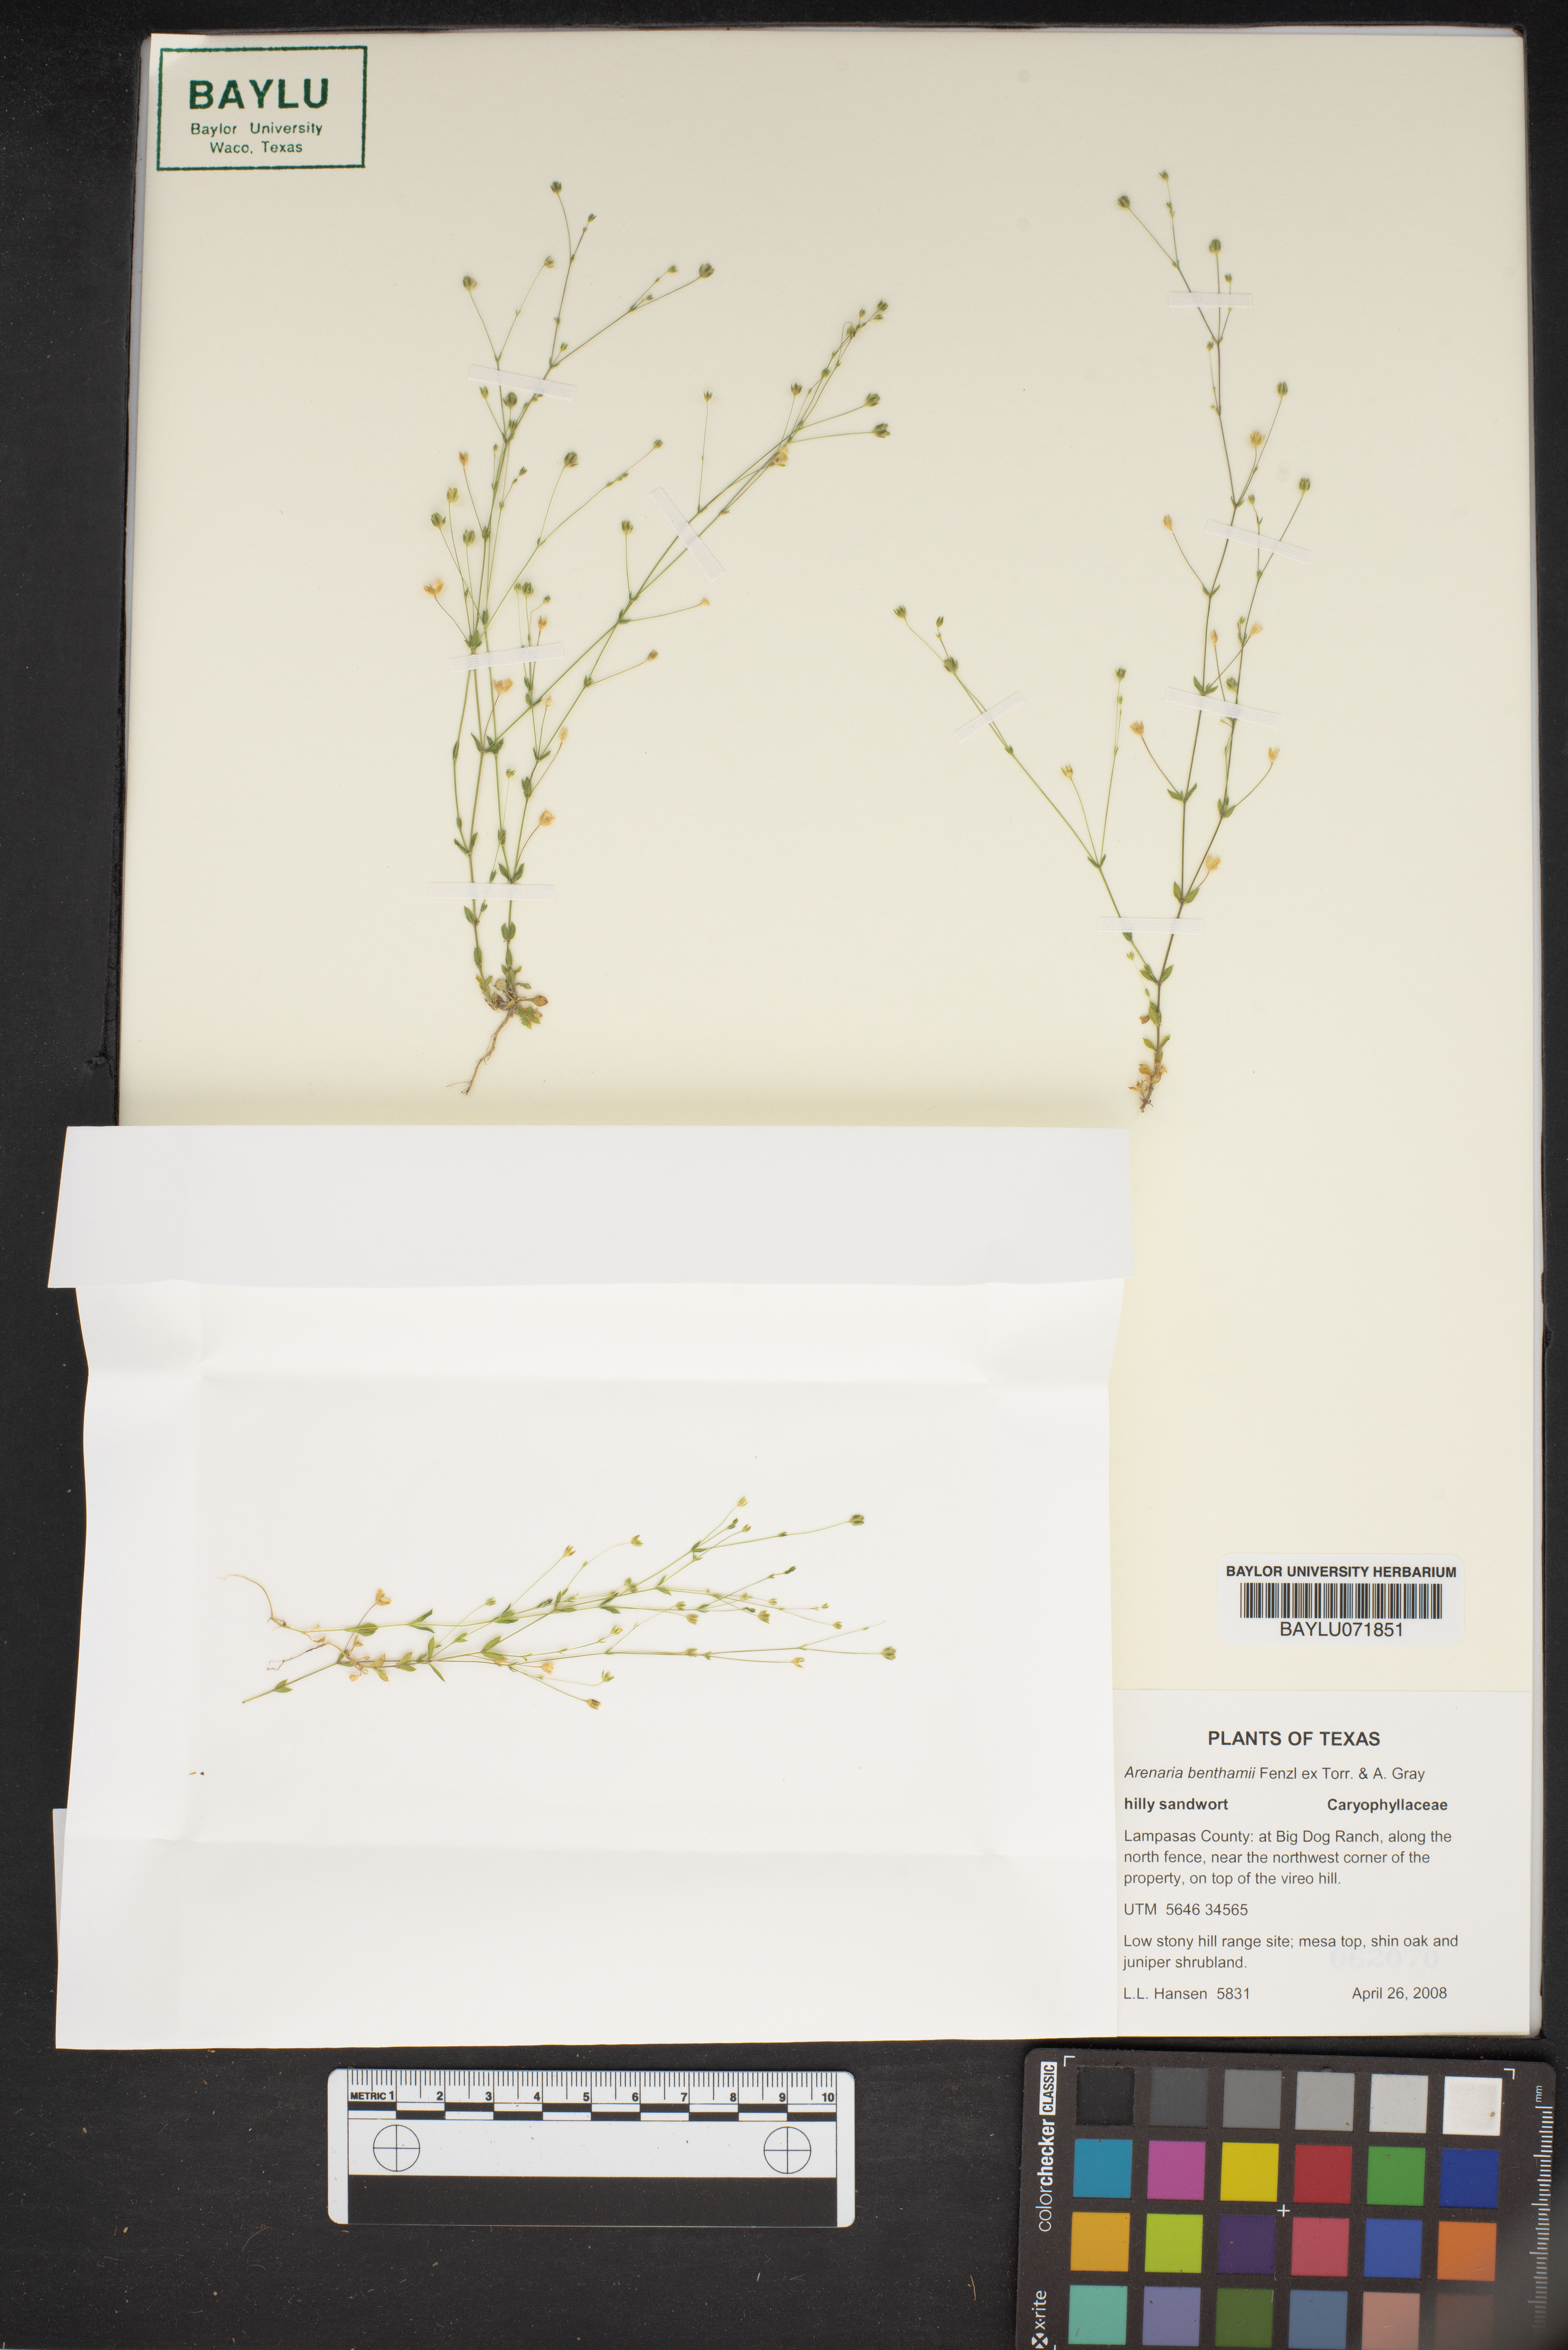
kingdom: Plantae
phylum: Tracheophyta
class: Magnoliopsida
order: Caryophyllales
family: Caryophyllaceae
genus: Arenaria
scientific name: Arenaria benthamii
